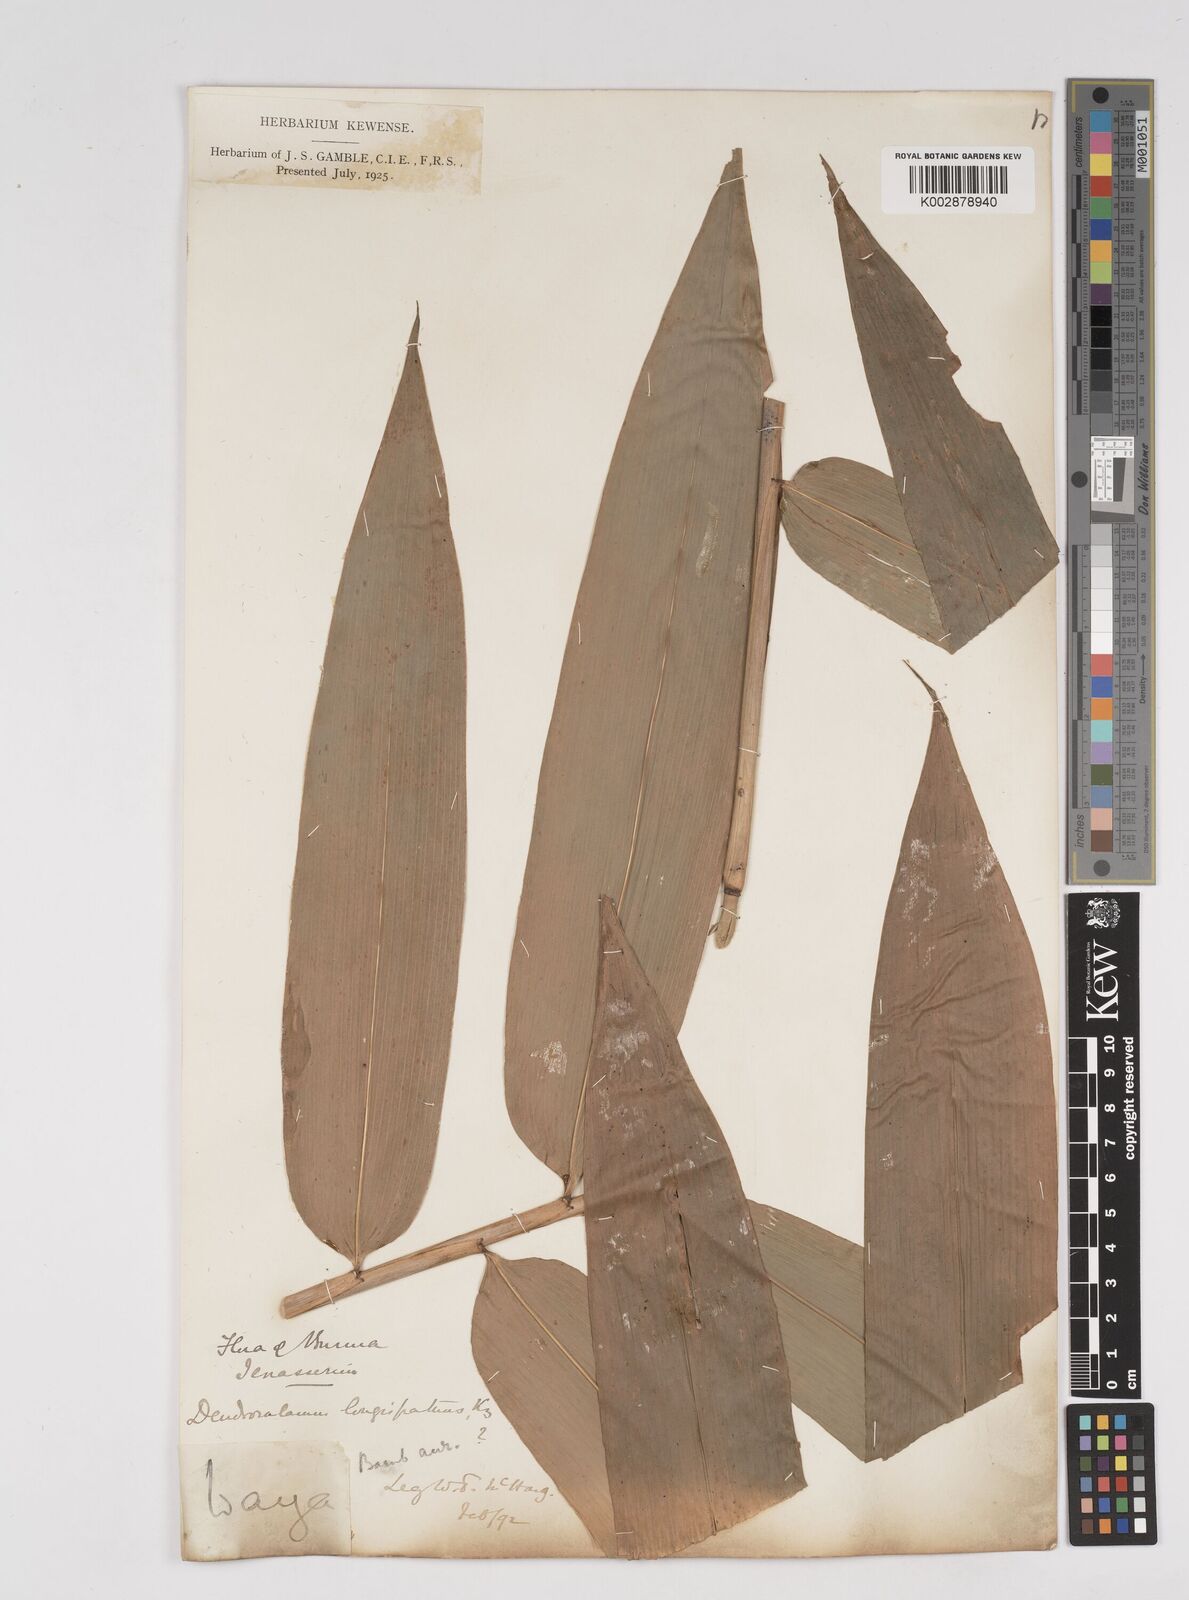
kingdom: Plantae
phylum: Tracheophyta
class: Liliopsida
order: Poales
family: Poaceae
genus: Dendrocalamus
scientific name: Dendrocalamus longispathus
